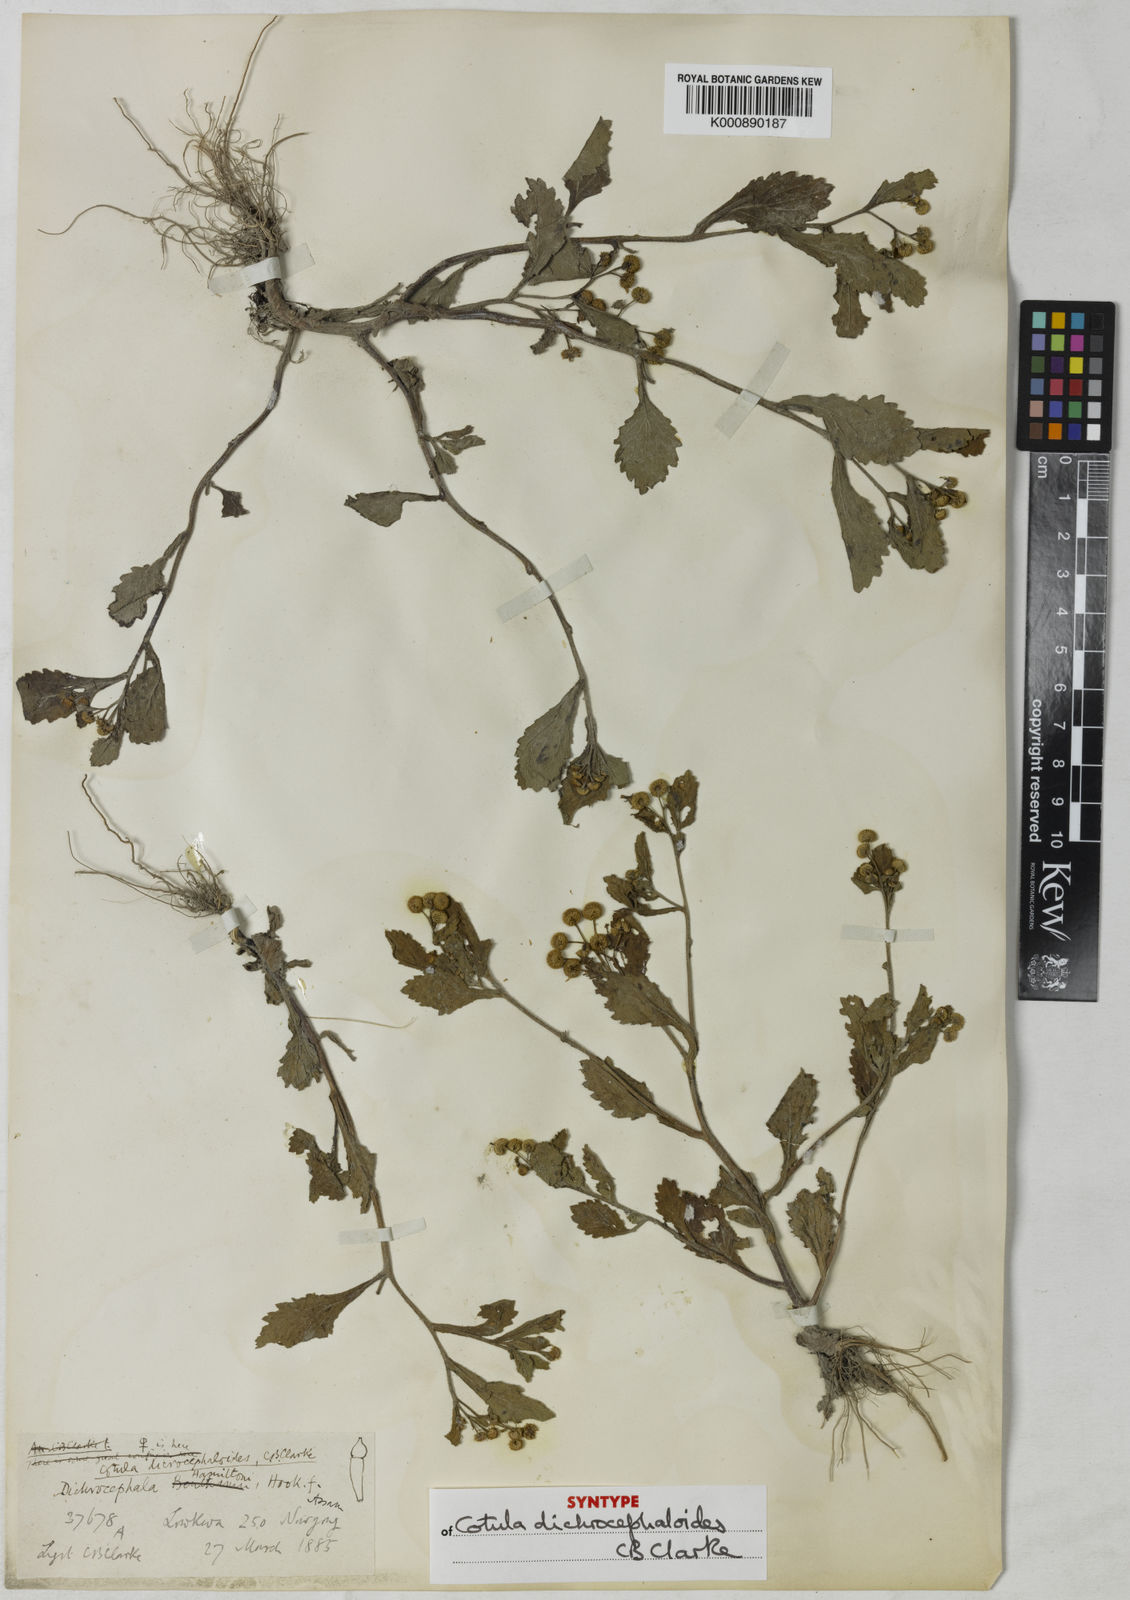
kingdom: Plantae
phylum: Tracheophyta
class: Magnoliopsida
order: Asterales
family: Asteraceae
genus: Dichrocephala
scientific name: Dichrocephala integrifolia
